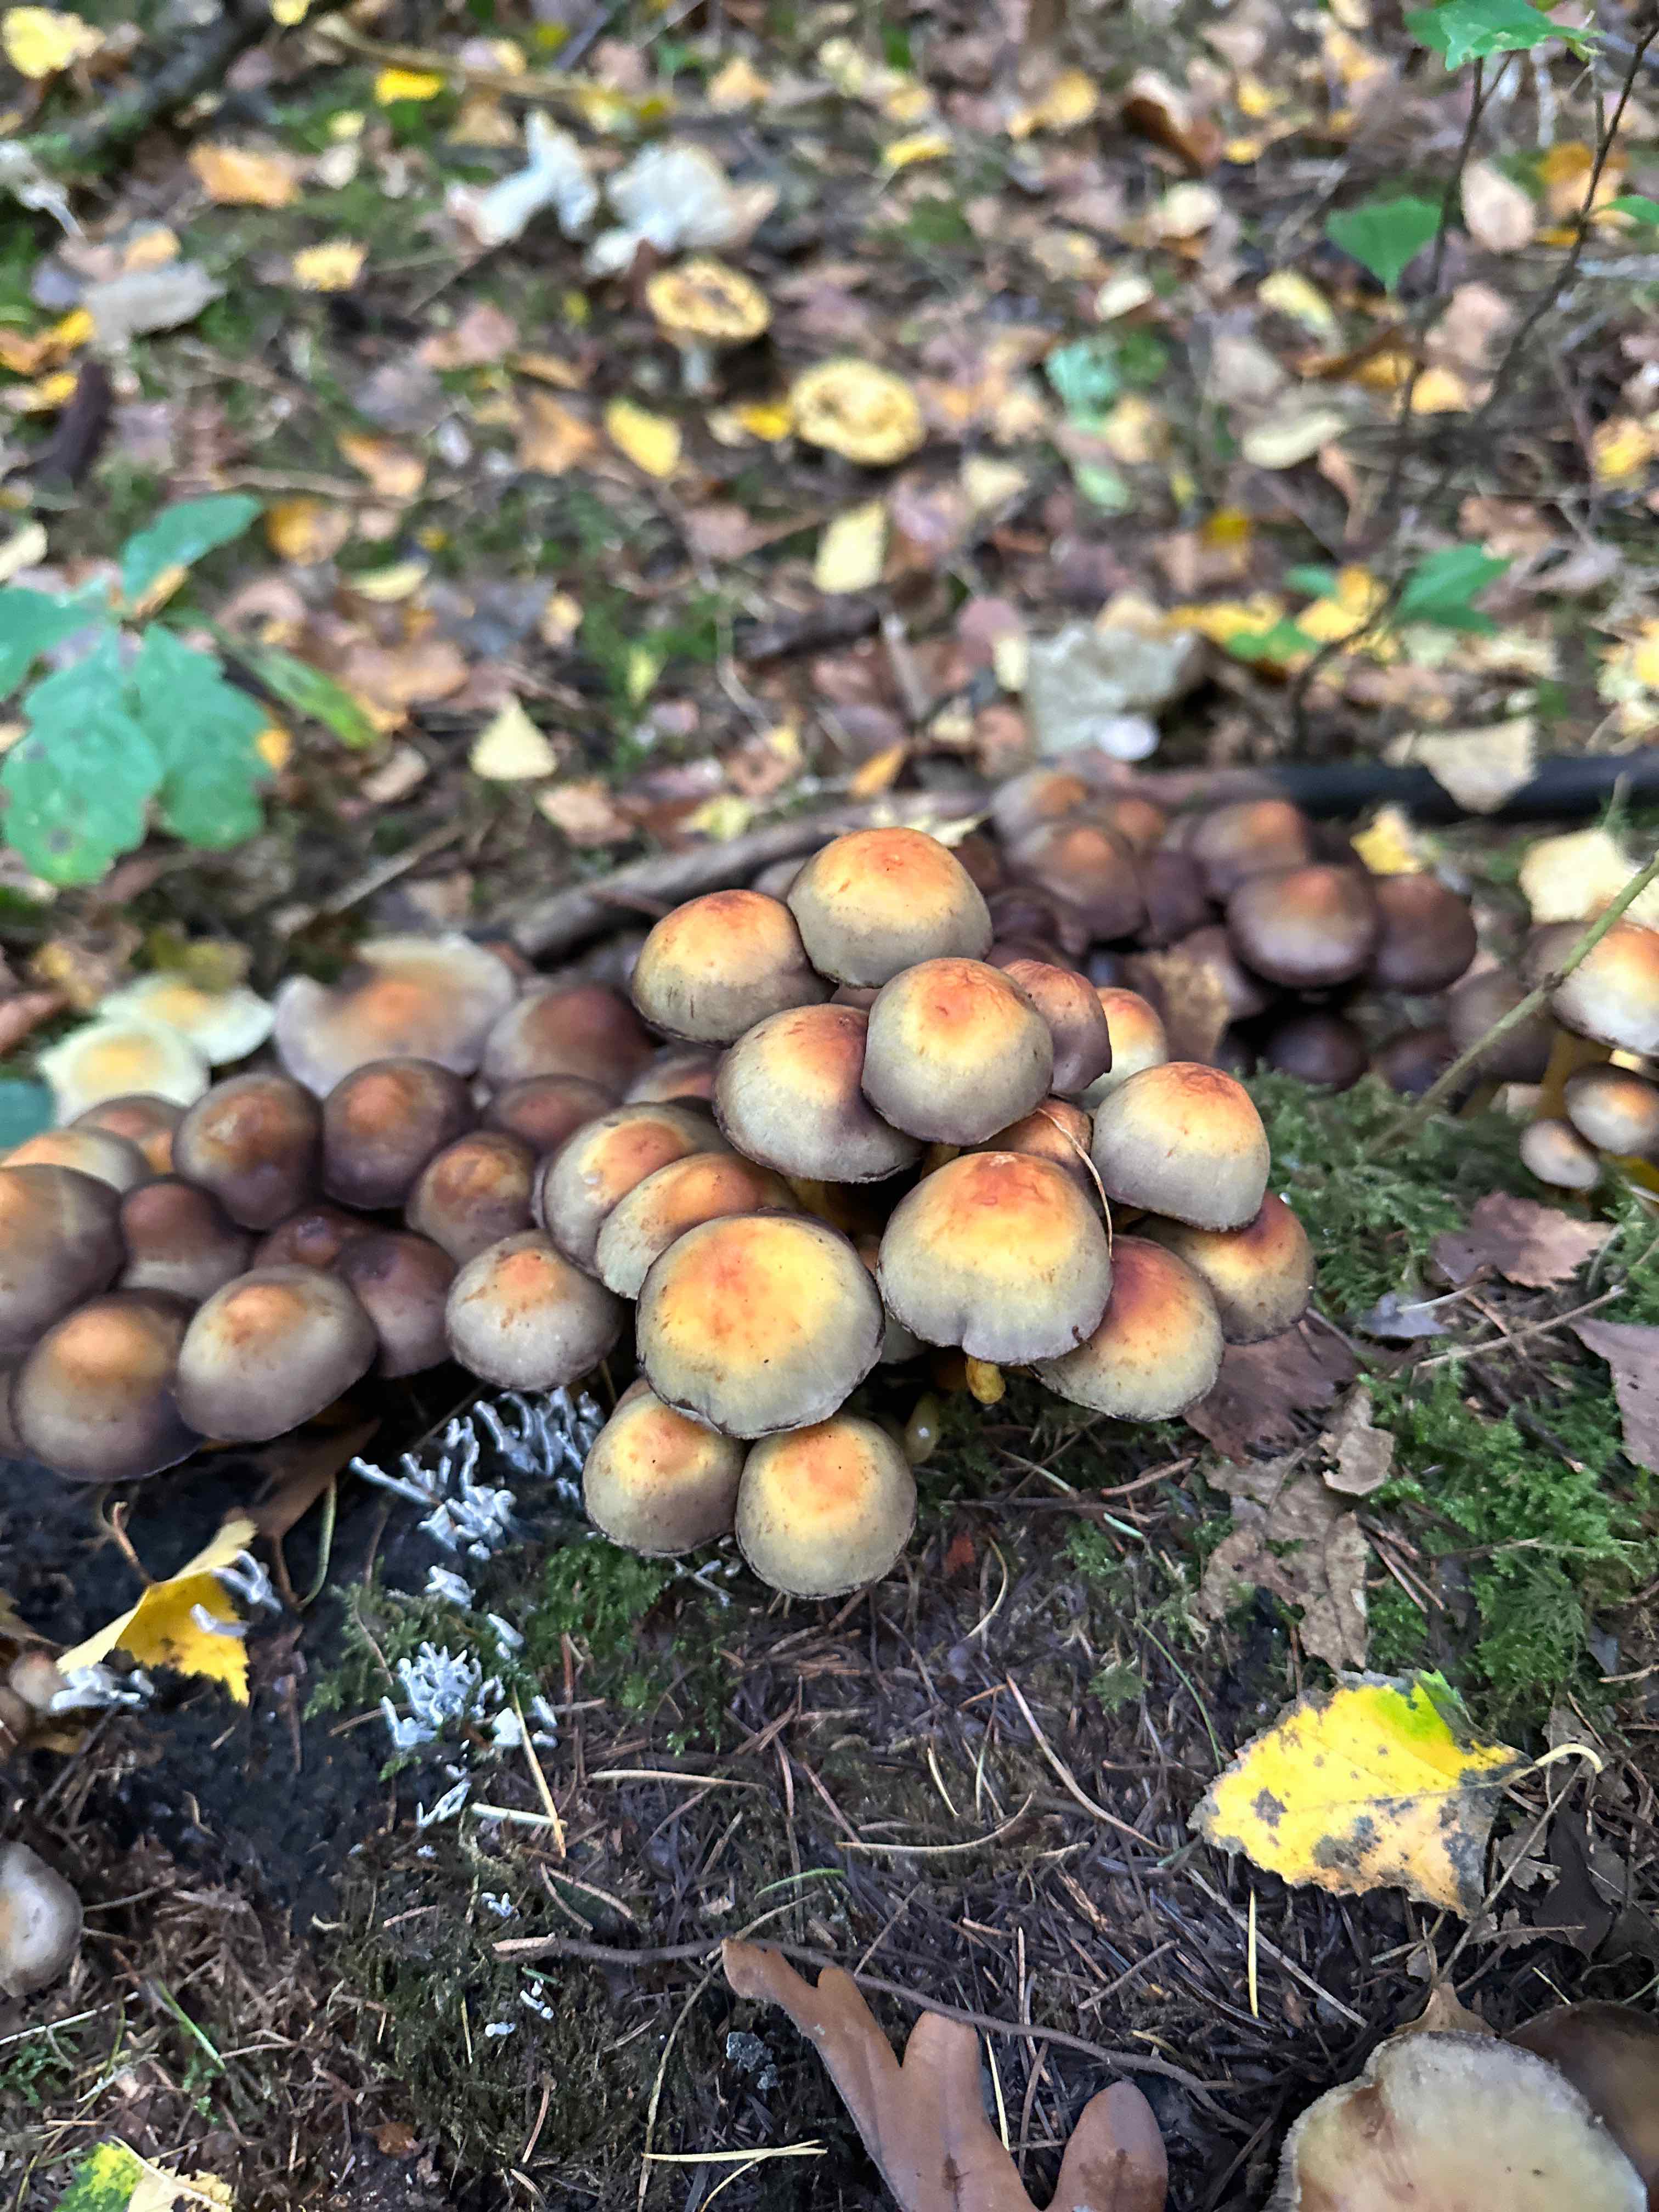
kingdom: Fungi
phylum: Basidiomycota
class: Agaricomycetes
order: Agaricales
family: Strophariaceae
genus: Hypholoma
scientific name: Hypholoma fasciculare
